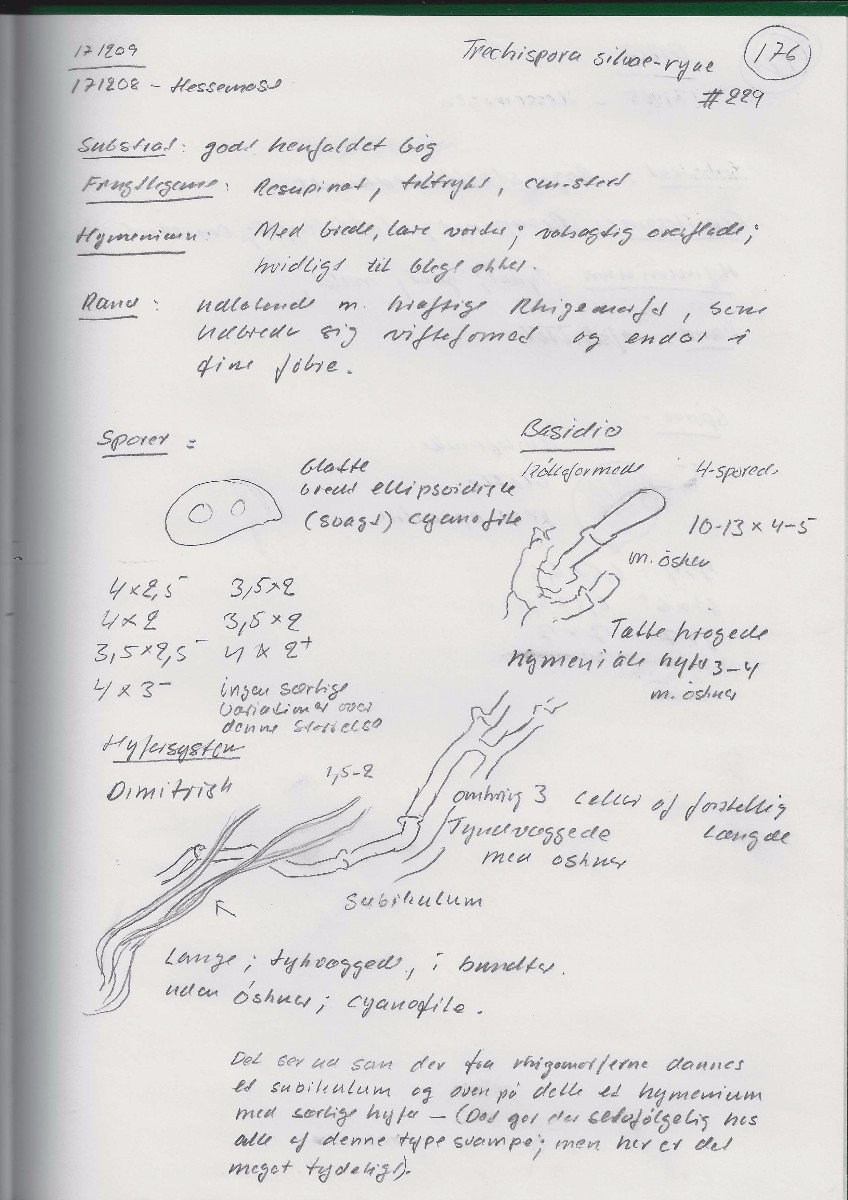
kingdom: Fungi
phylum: Basidiomycota
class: Agaricomycetes
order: Trechisporales
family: Sistotremataceae
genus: Trechispora
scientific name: Trechispora silvae-ryae
